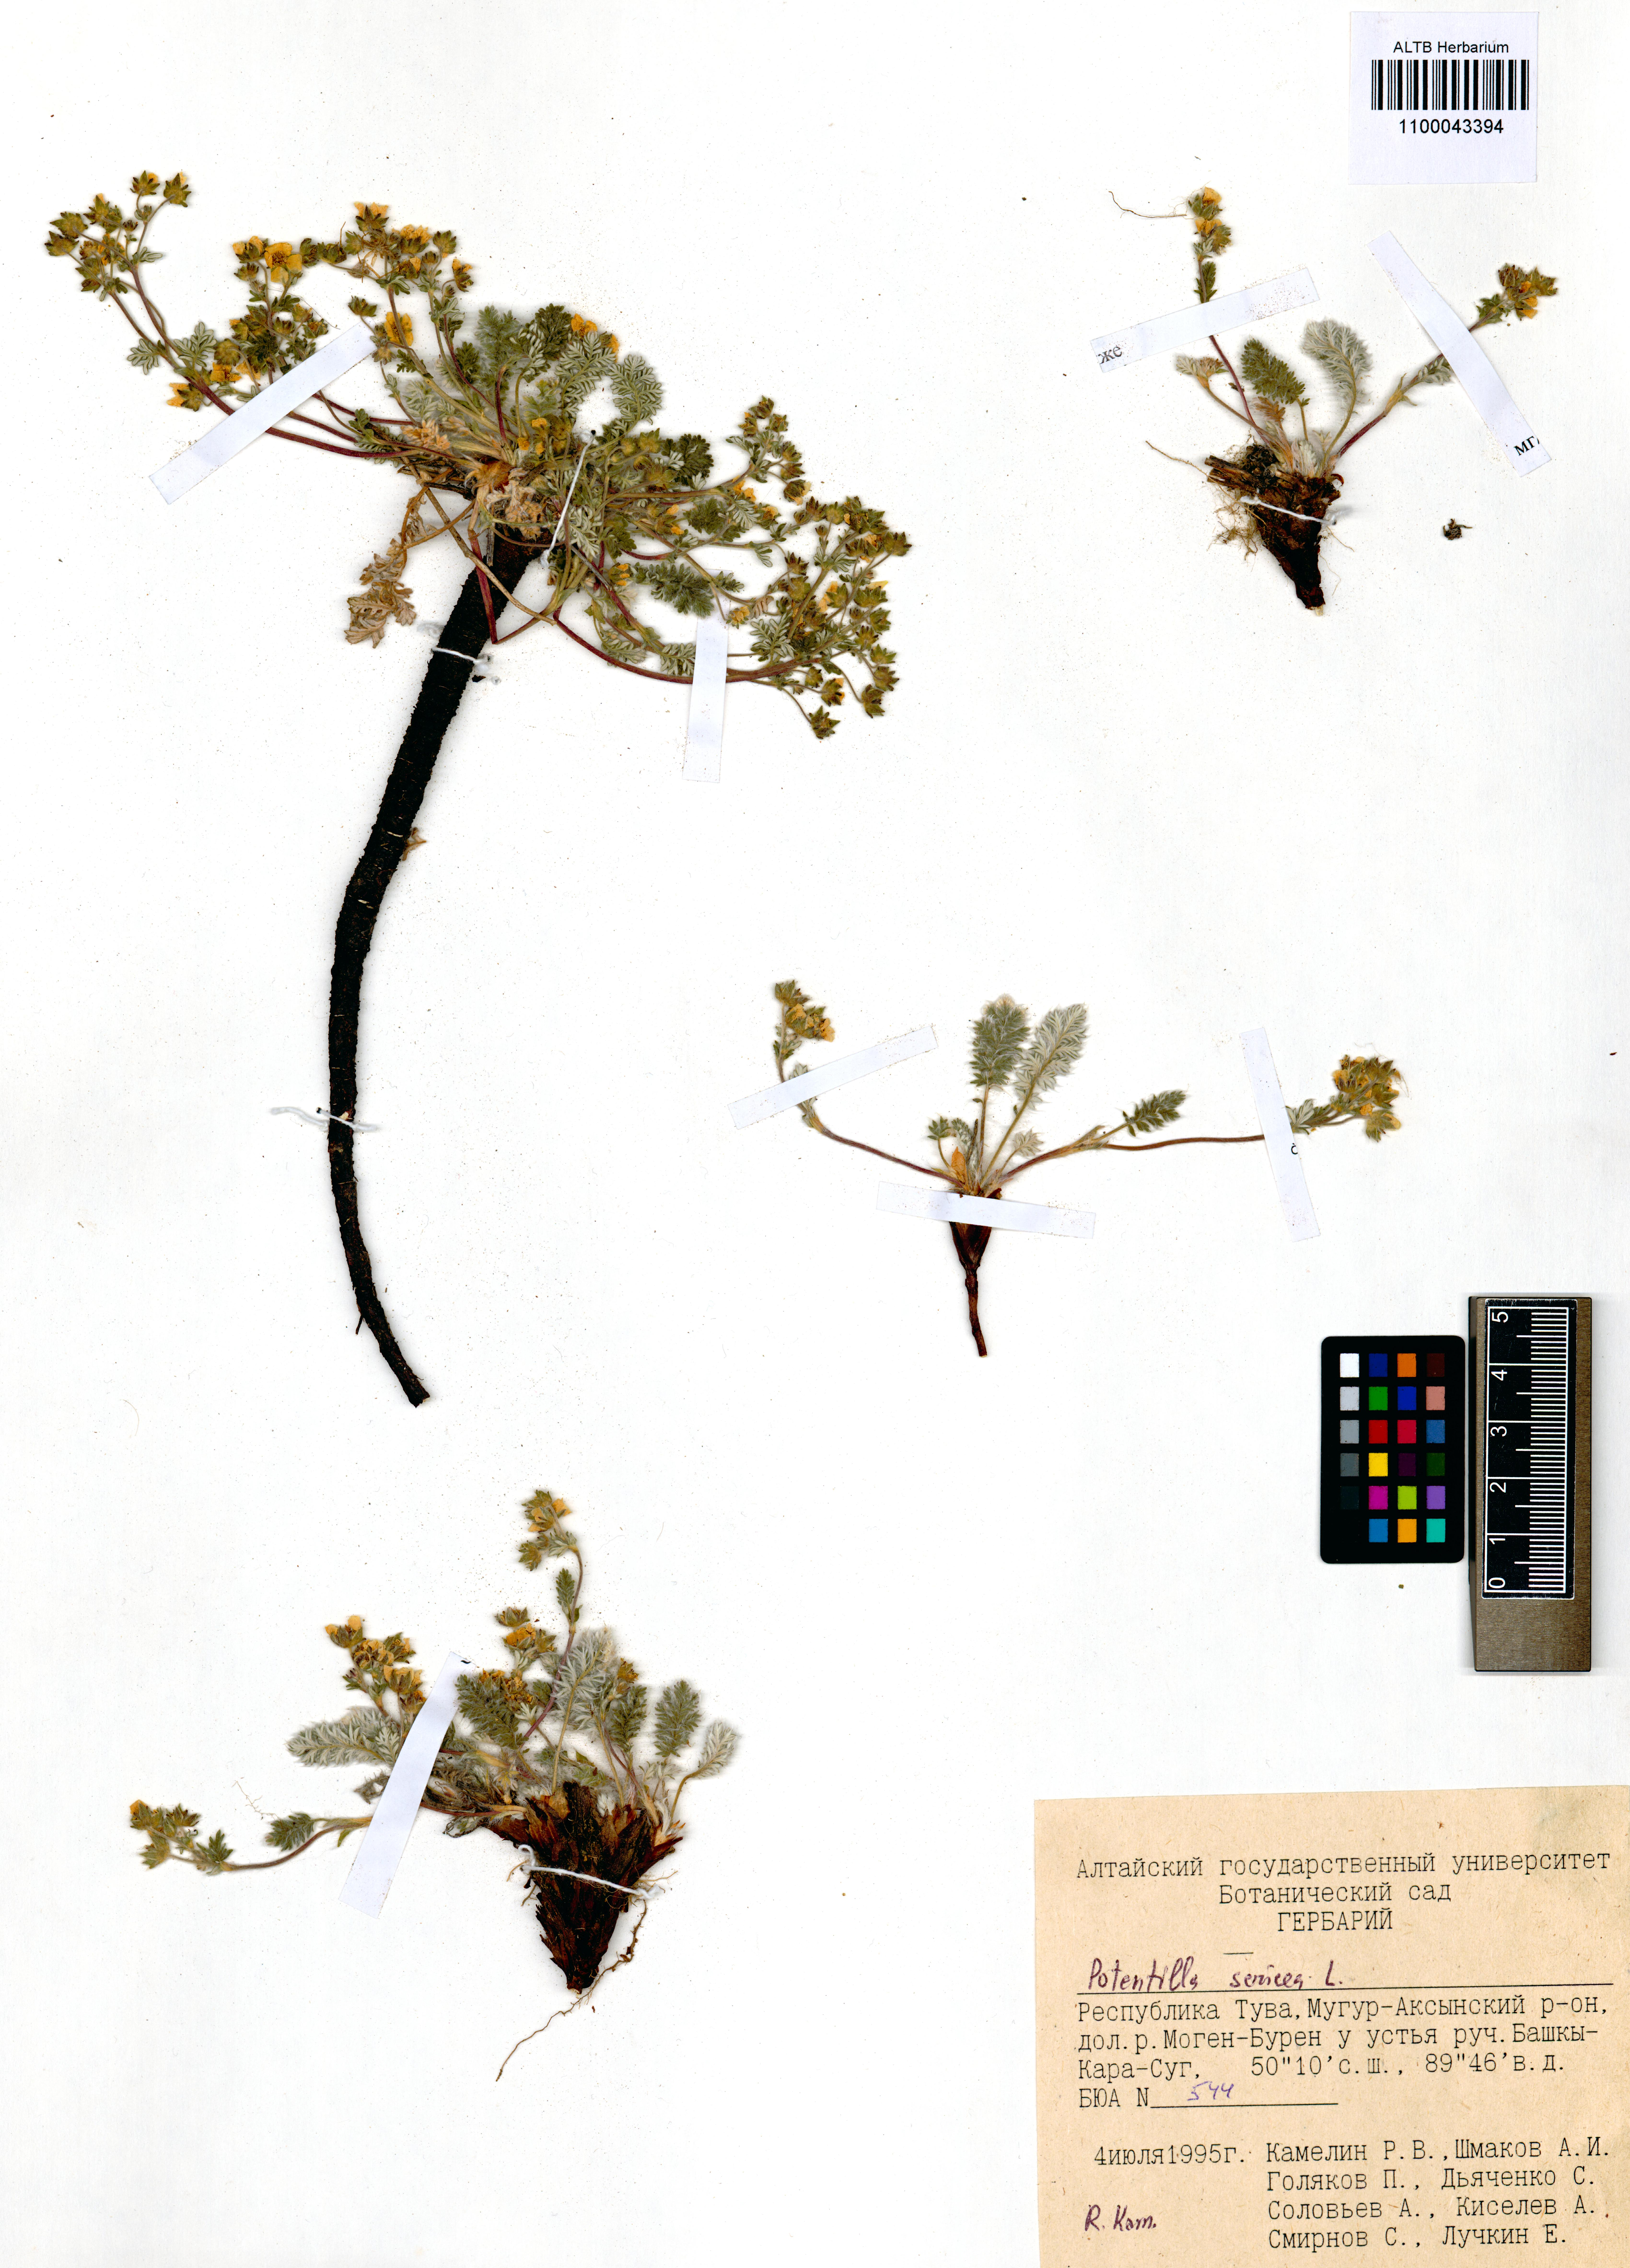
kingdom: Plantae
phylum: Tracheophyta
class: Magnoliopsida
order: Rosales
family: Rosaceae
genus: Potentilla
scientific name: Potentilla sericea
